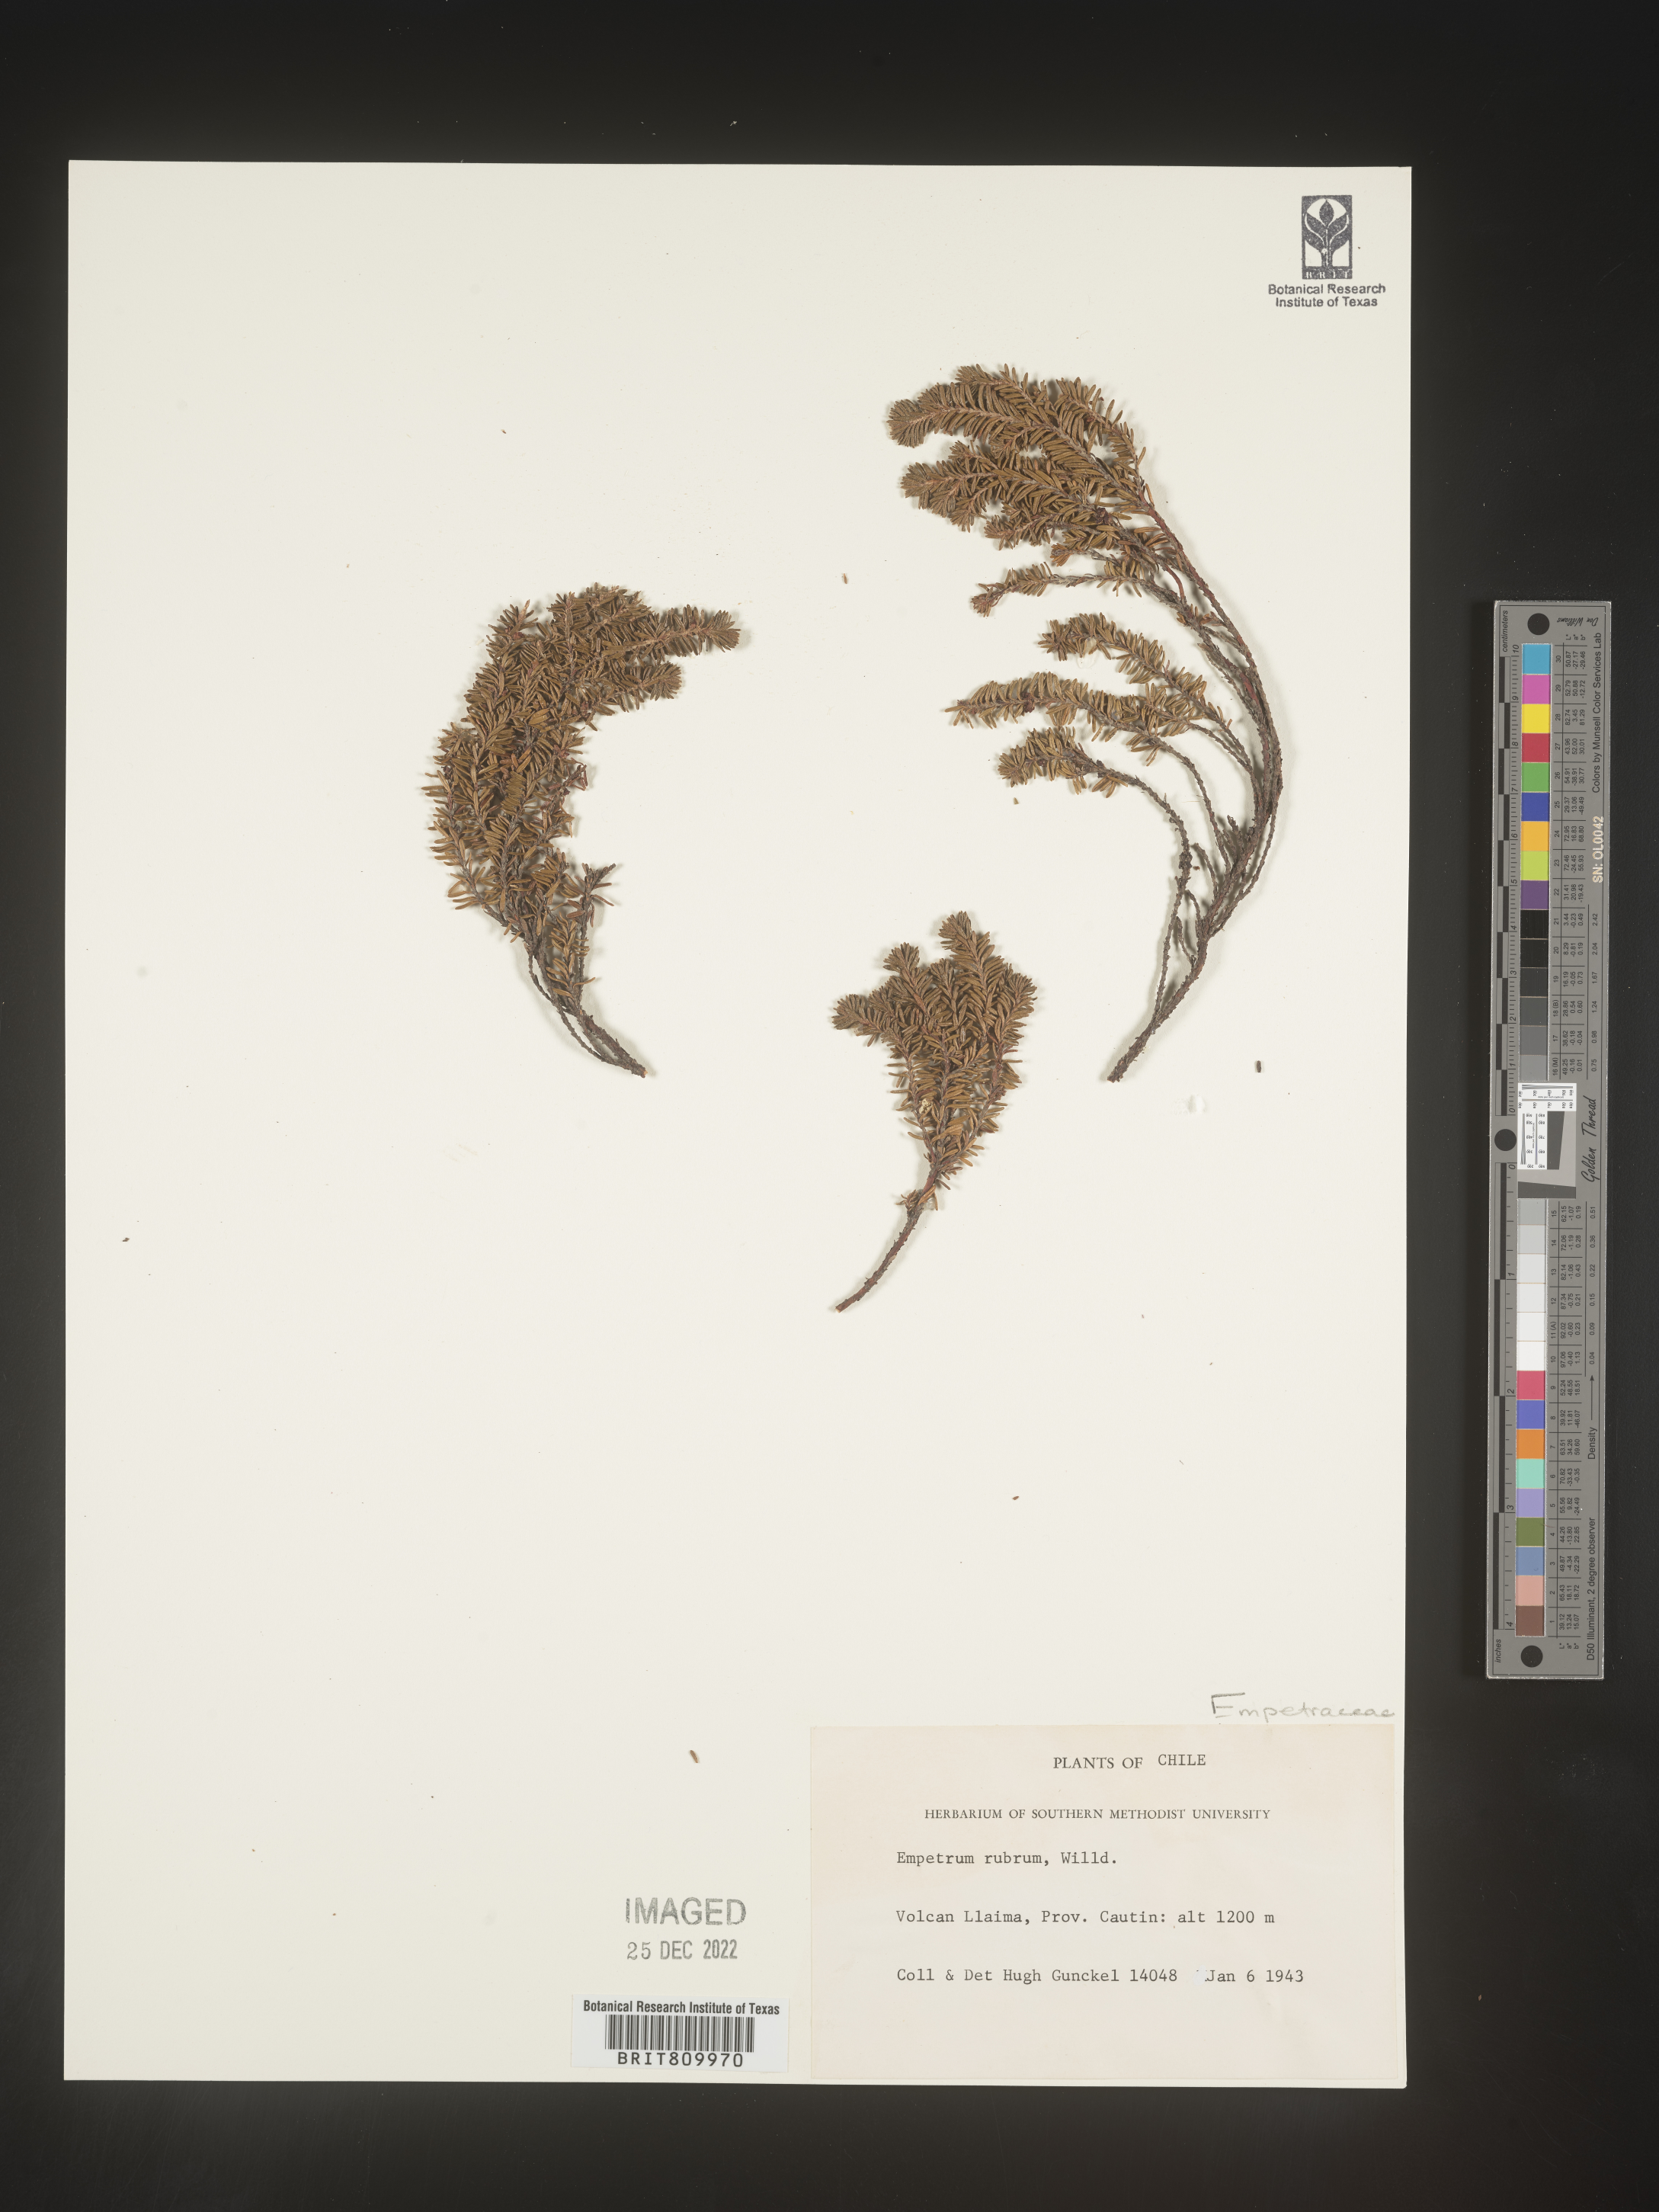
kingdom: Plantae
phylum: Tracheophyta
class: Magnoliopsida
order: Ericales
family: Ericaceae
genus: Empetrum
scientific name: Empetrum
